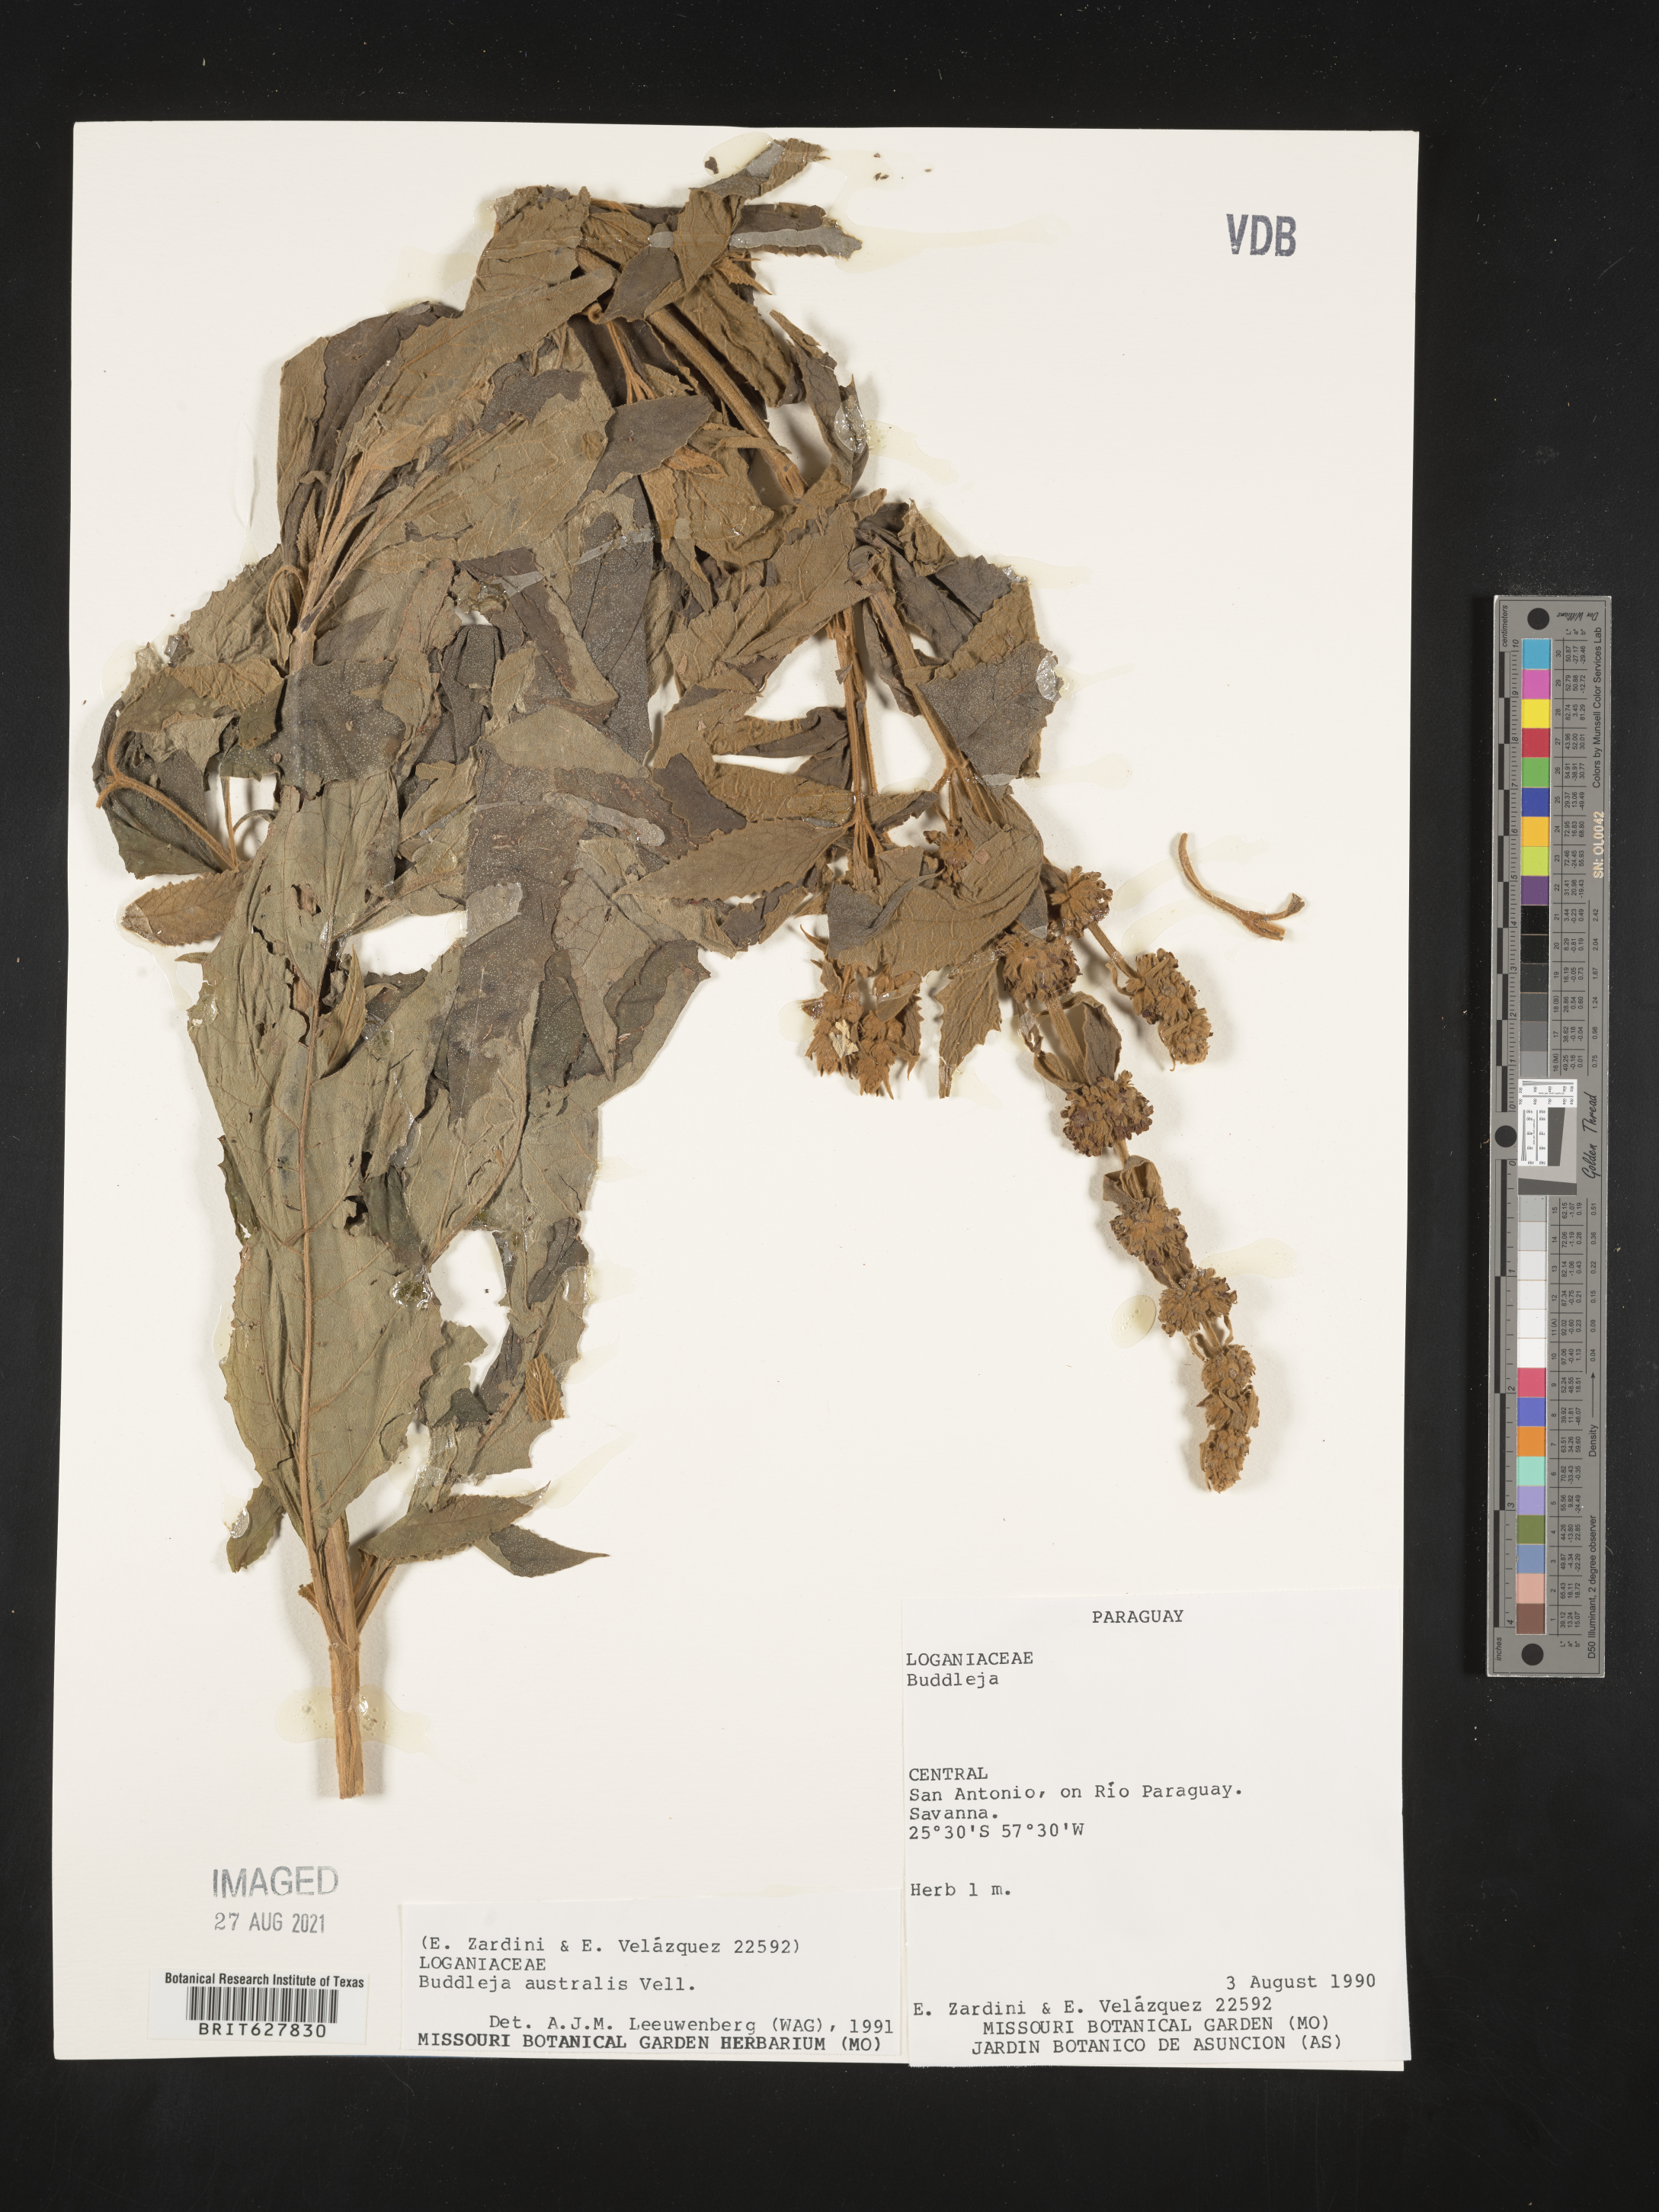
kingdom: Plantae
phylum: Tracheophyta
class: Magnoliopsida
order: Lamiales
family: Scrophulariaceae
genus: Buddleja
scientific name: Buddleja
